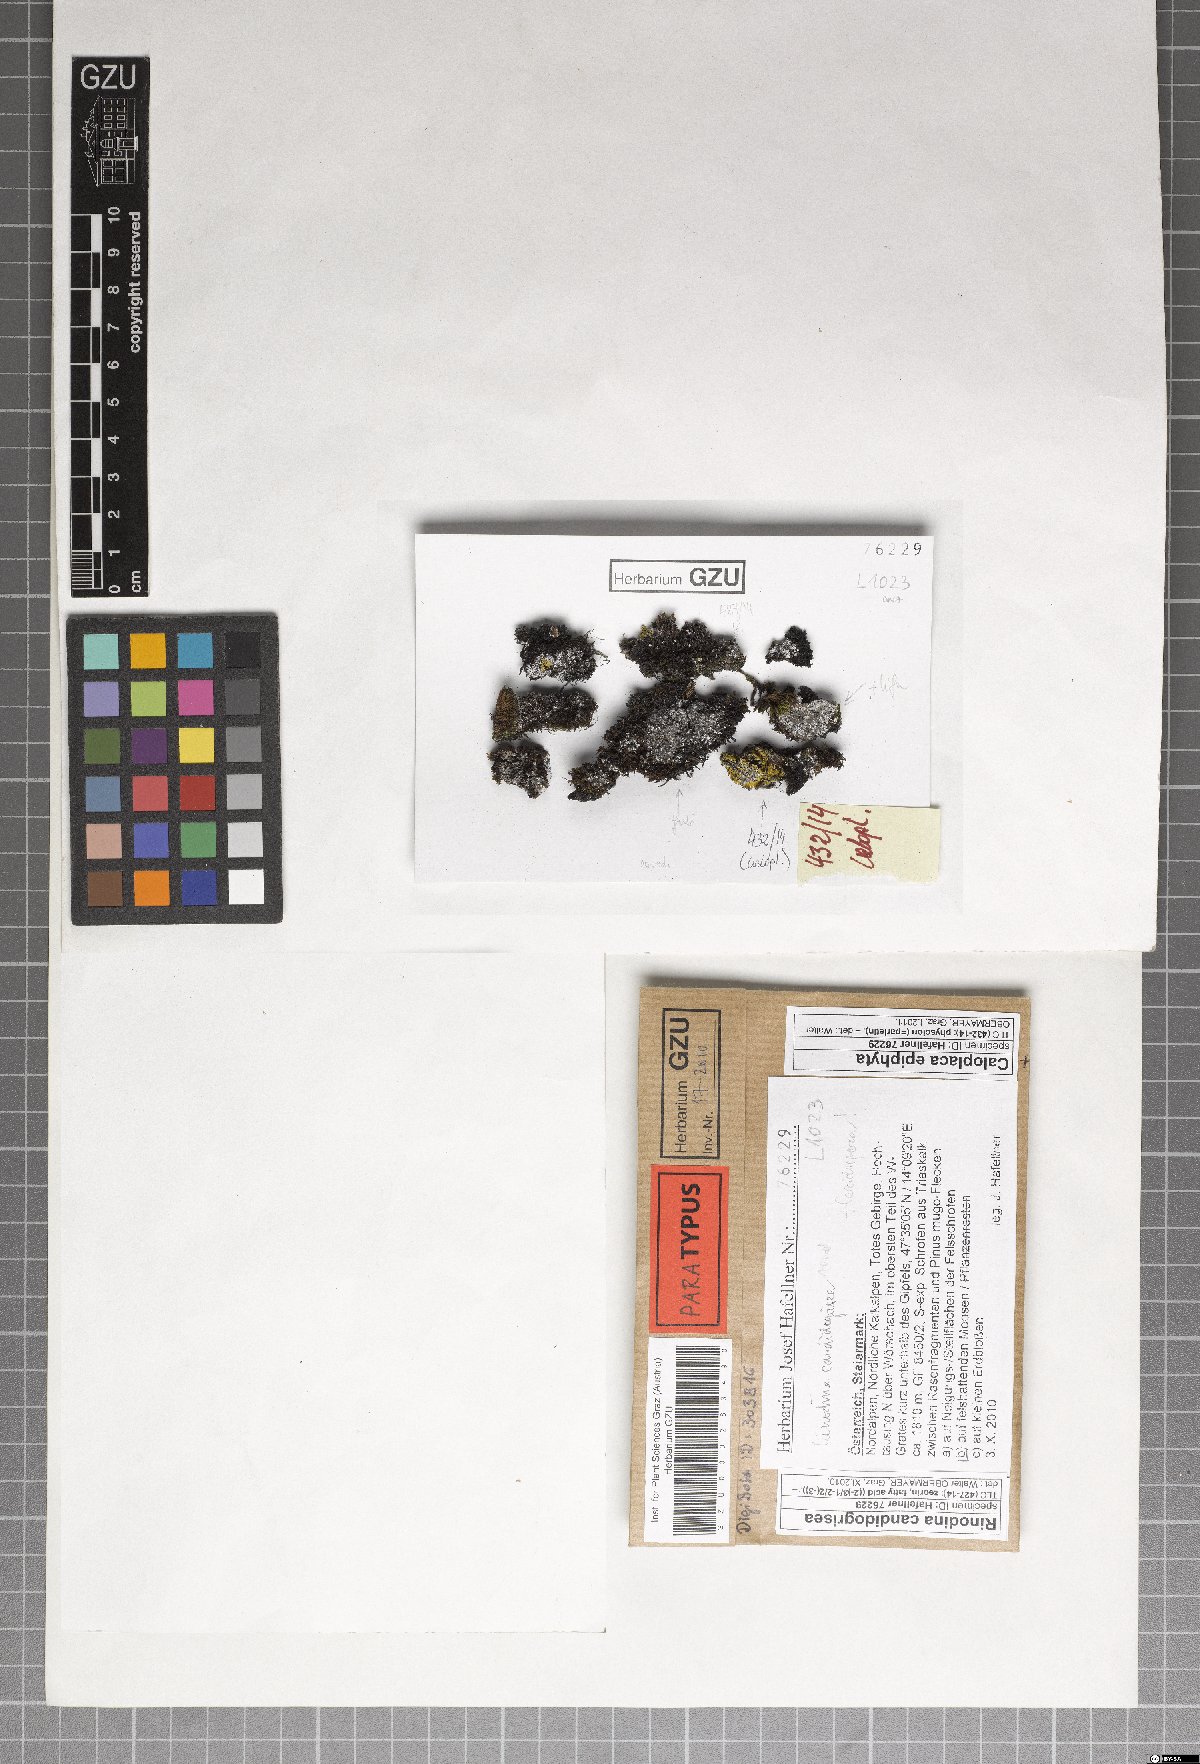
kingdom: Fungi
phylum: Ascomycota
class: Lecanoromycetes
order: Caliciales
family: Physciaceae
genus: Kudratovia
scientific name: Kudratovia candidogrisea
